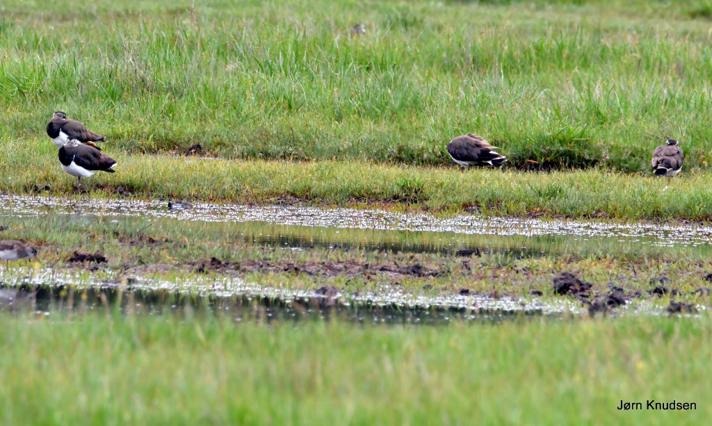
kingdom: Animalia
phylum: Chordata
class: Aves
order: Charadriiformes
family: Charadriidae
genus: Vanellus
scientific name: Vanellus vanellus
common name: Vibe
